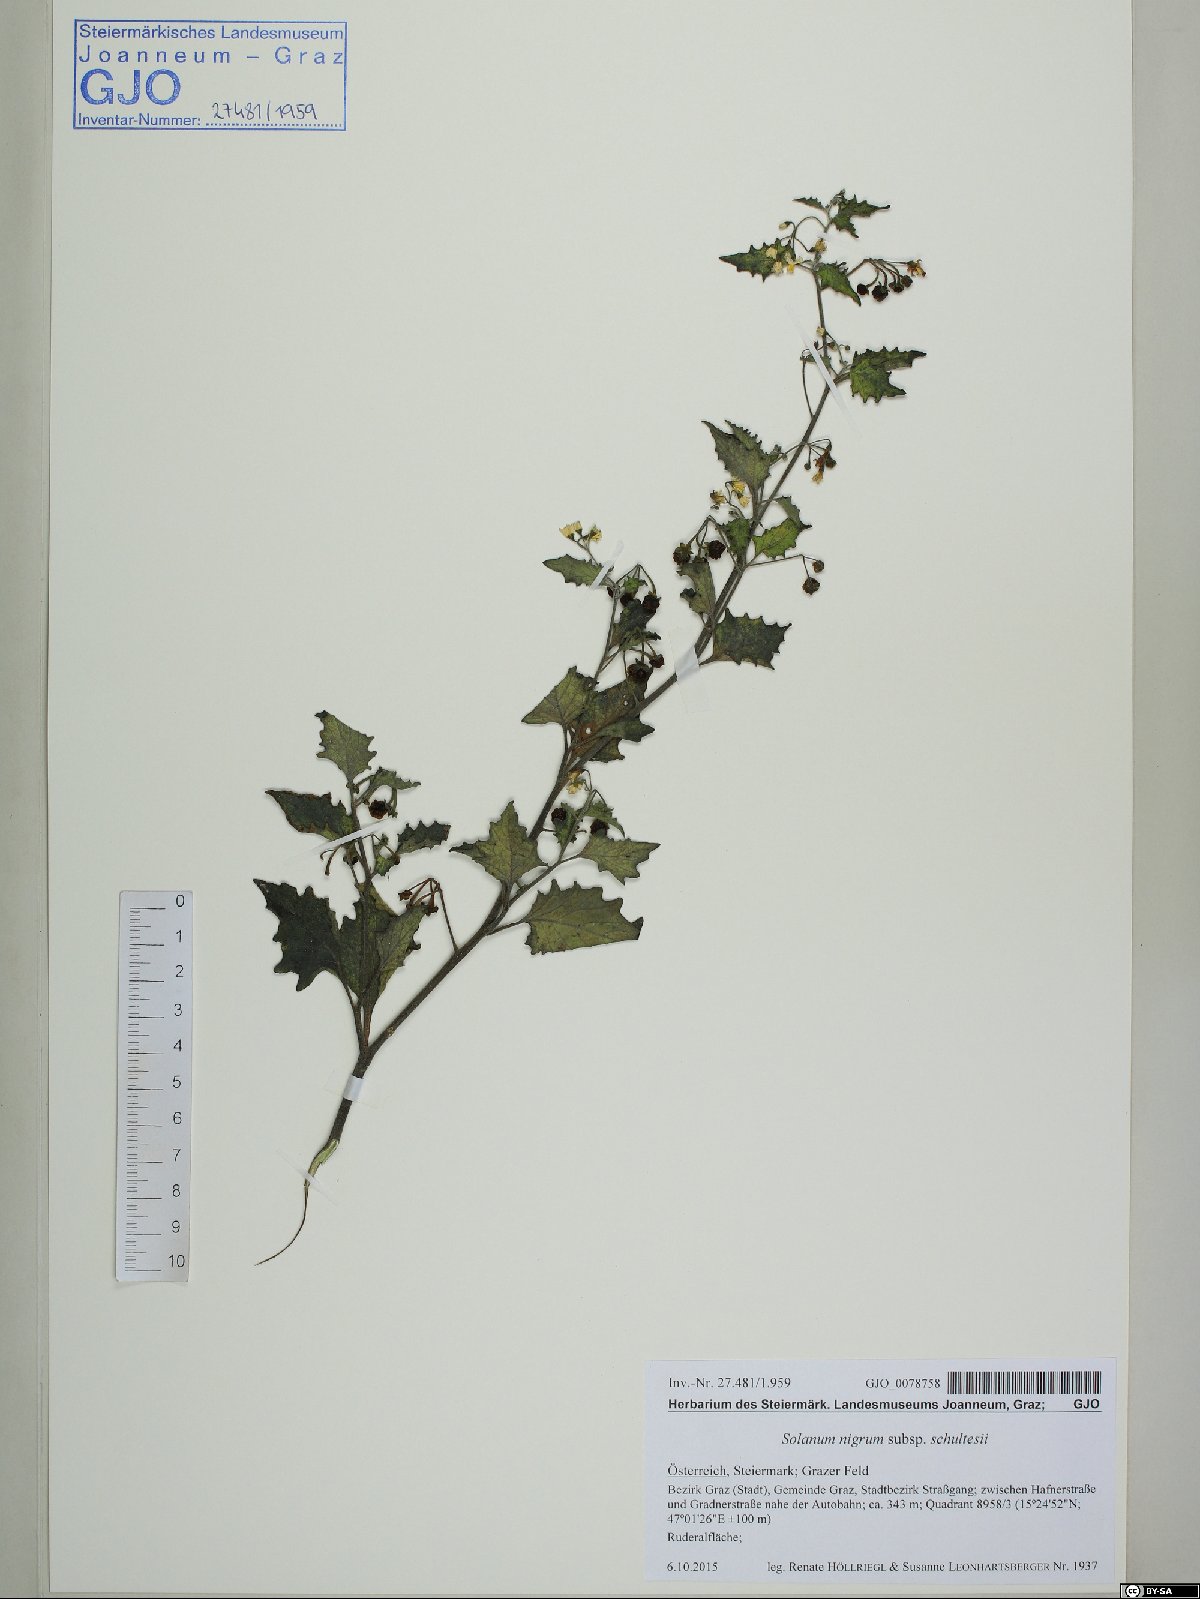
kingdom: Plantae
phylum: Tracheophyta
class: Magnoliopsida
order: Solanales
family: Solanaceae
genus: Solanum
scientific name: Solanum decipiens
